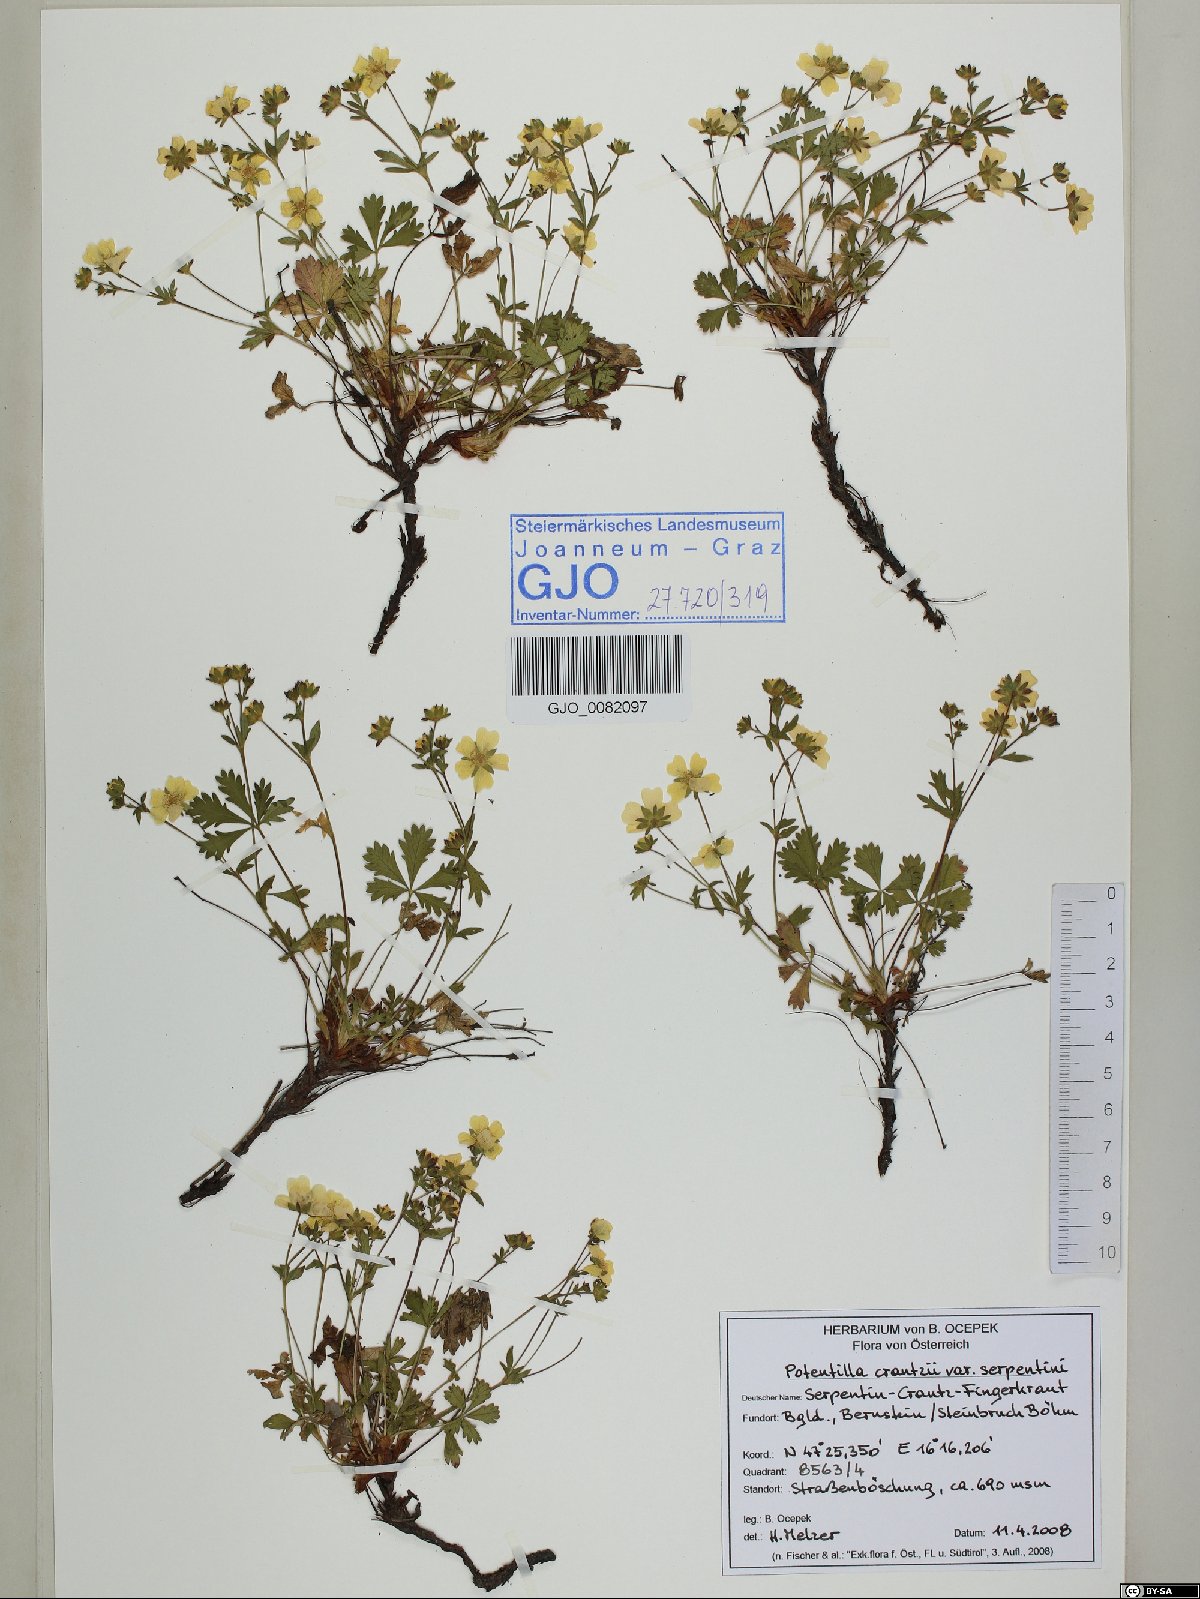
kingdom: Plantae
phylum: Tracheophyta
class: Magnoliopsida
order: Rosales
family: Rosaceae
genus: Potentilla
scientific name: Potentilla crantzii
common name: Alpine cinquefoil
